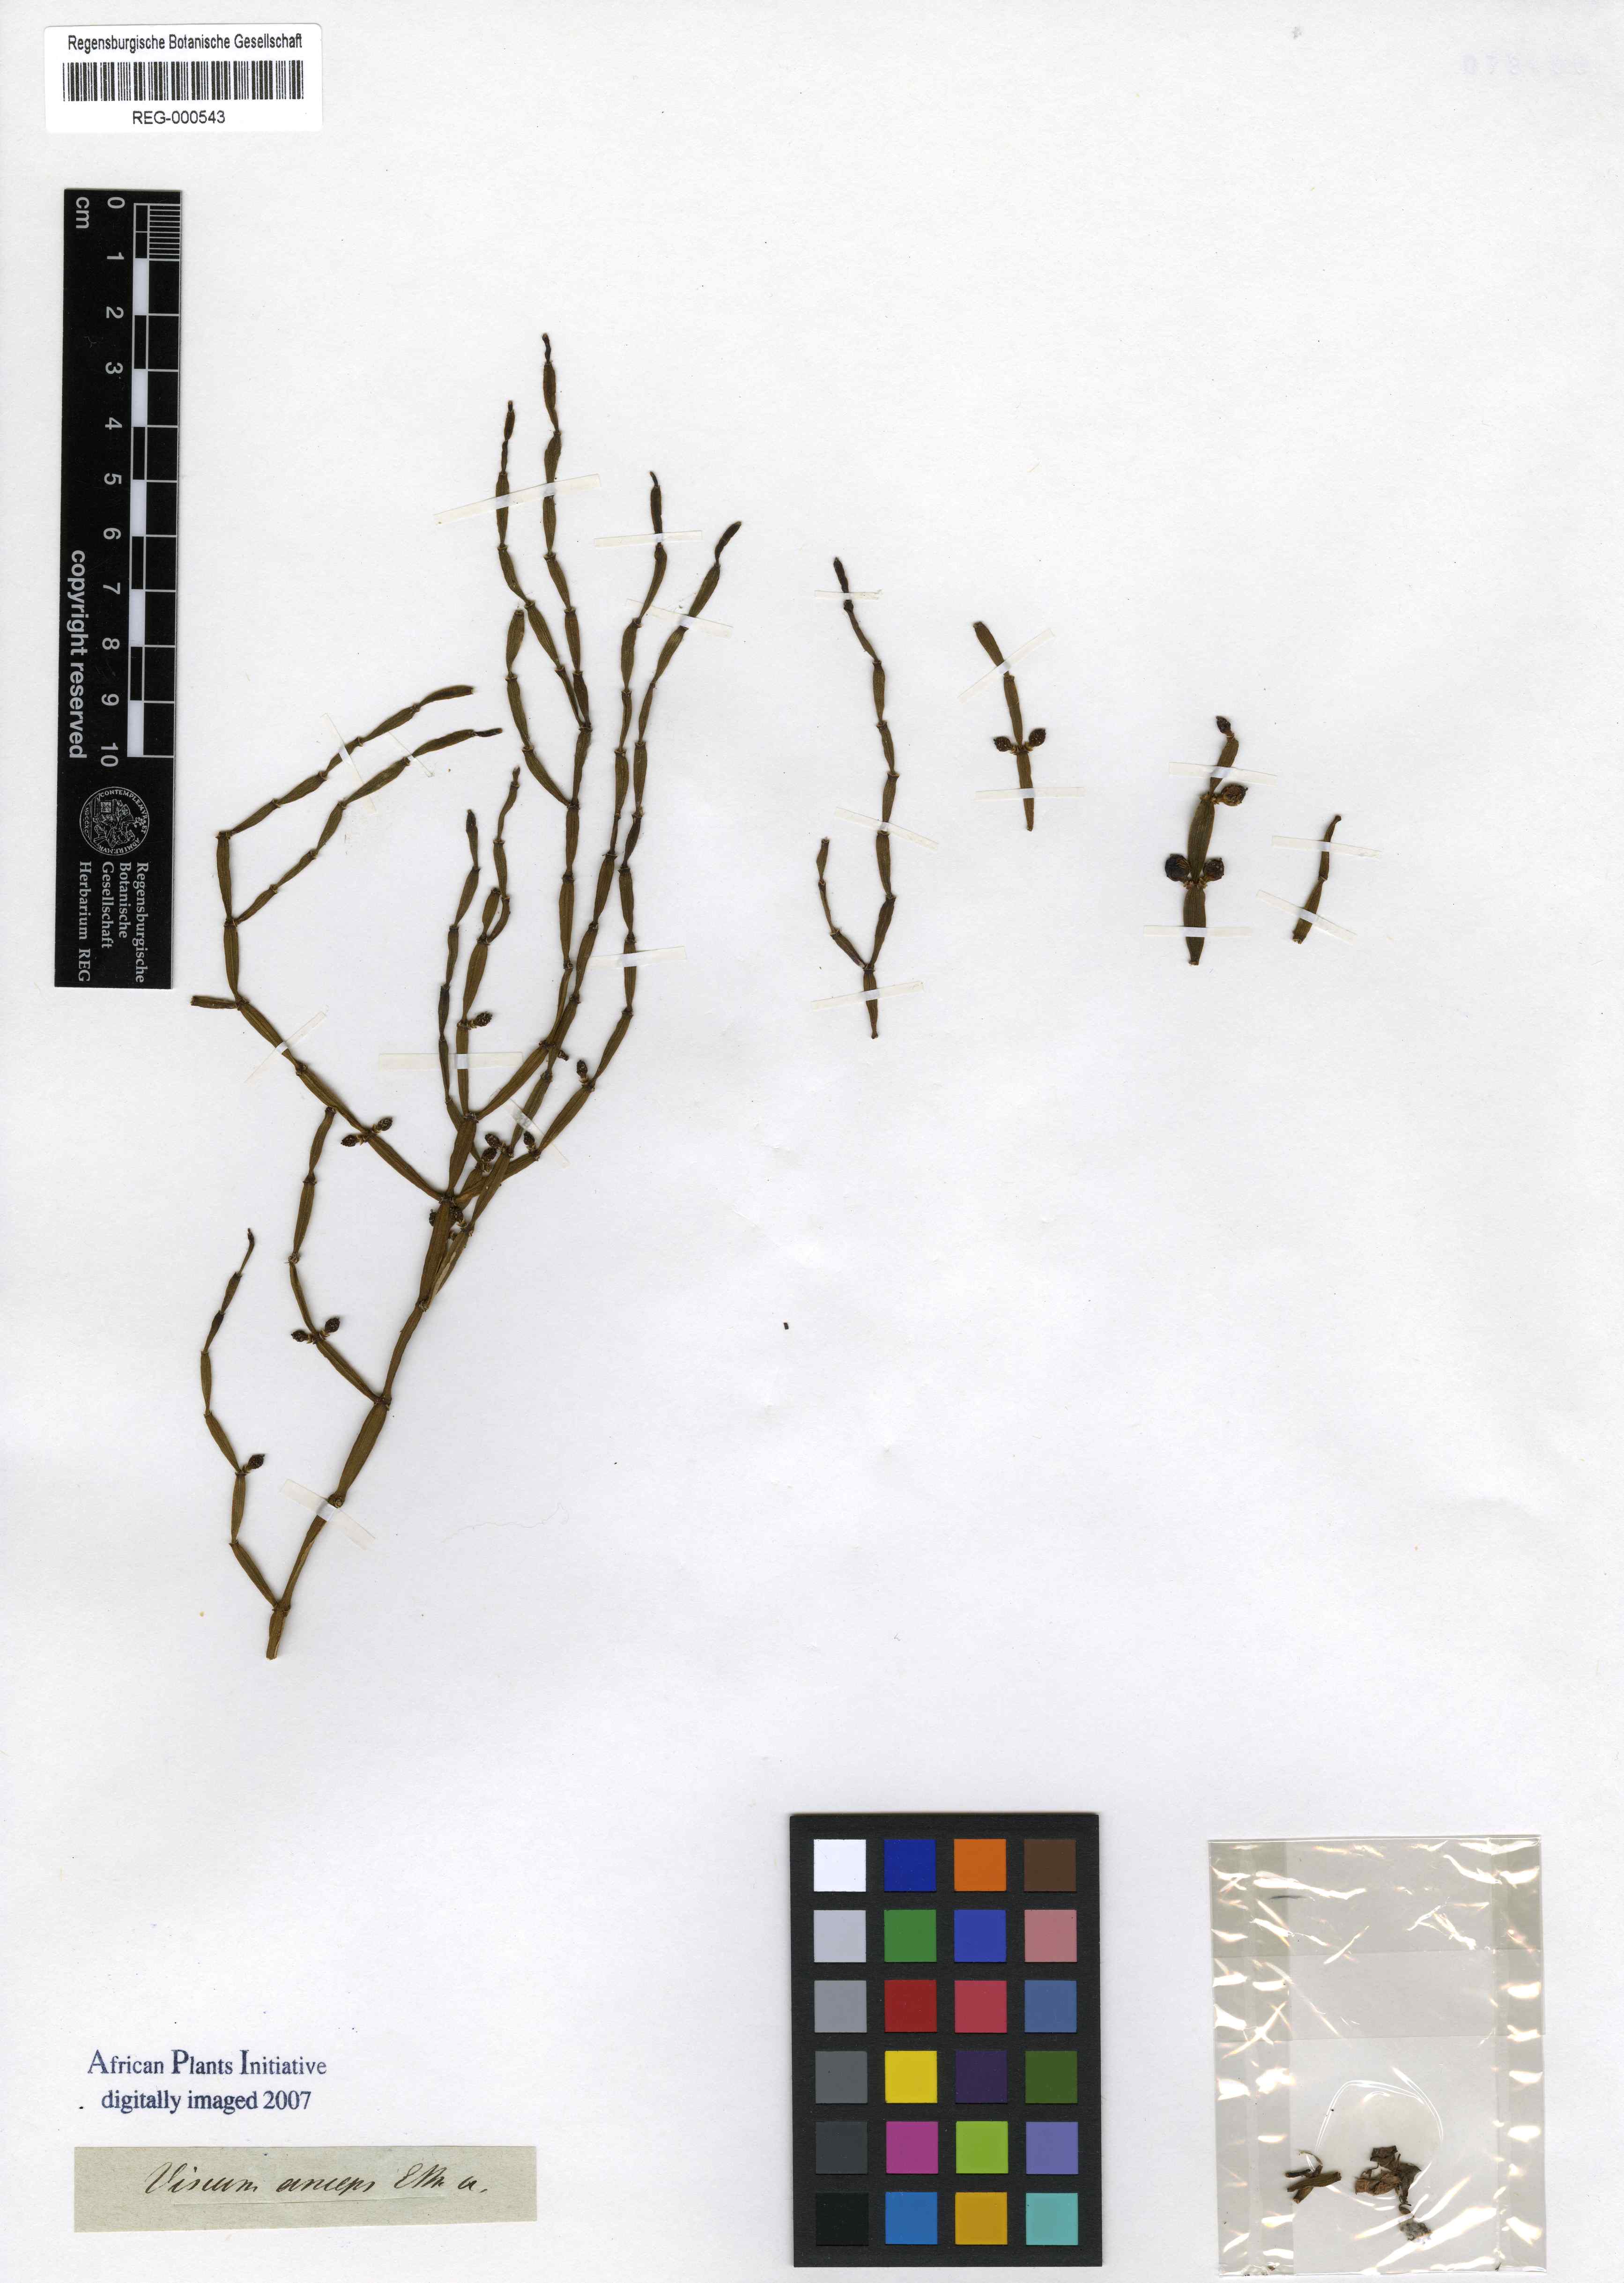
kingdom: Plantae
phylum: Tracheophyta
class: Magnoliopsida
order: Santalales
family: Viscaceae
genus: Viscum
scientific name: Viscum meyeri
